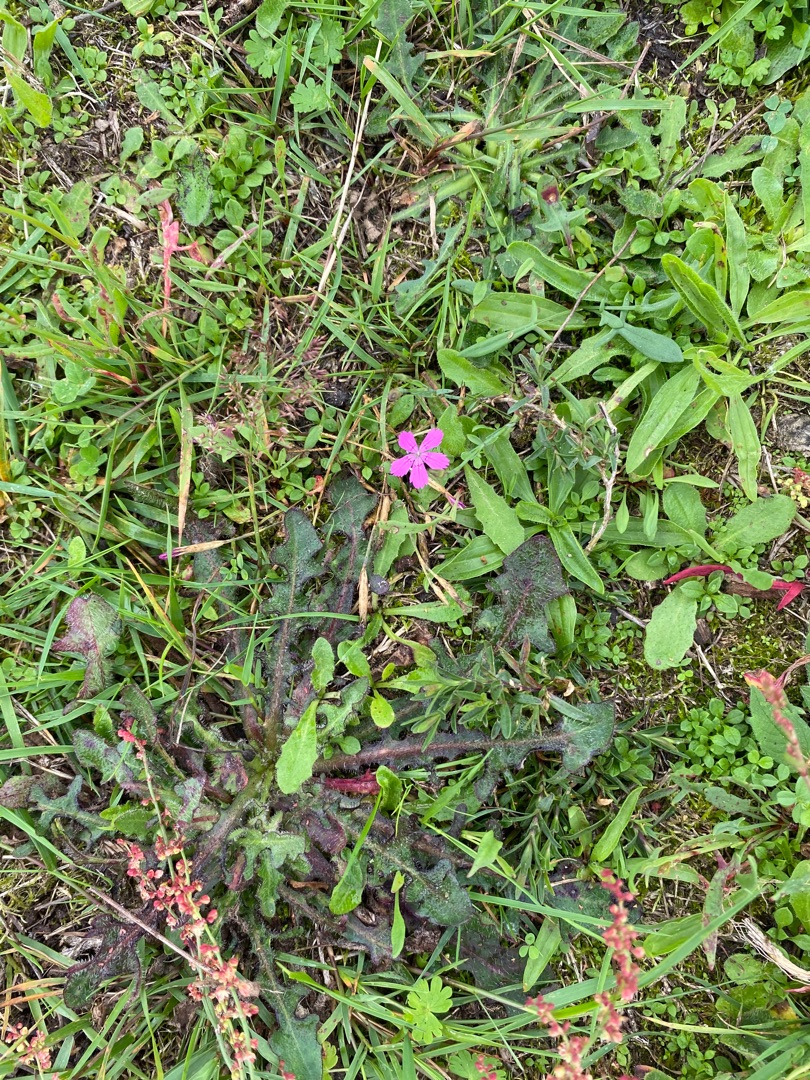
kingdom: Plantae
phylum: Tracheophyta
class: Magnoliopsida
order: Caryophyllales
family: Caryophyllaceae
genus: Dianthus
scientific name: Dianthus deltoides
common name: Bakke-nellike
